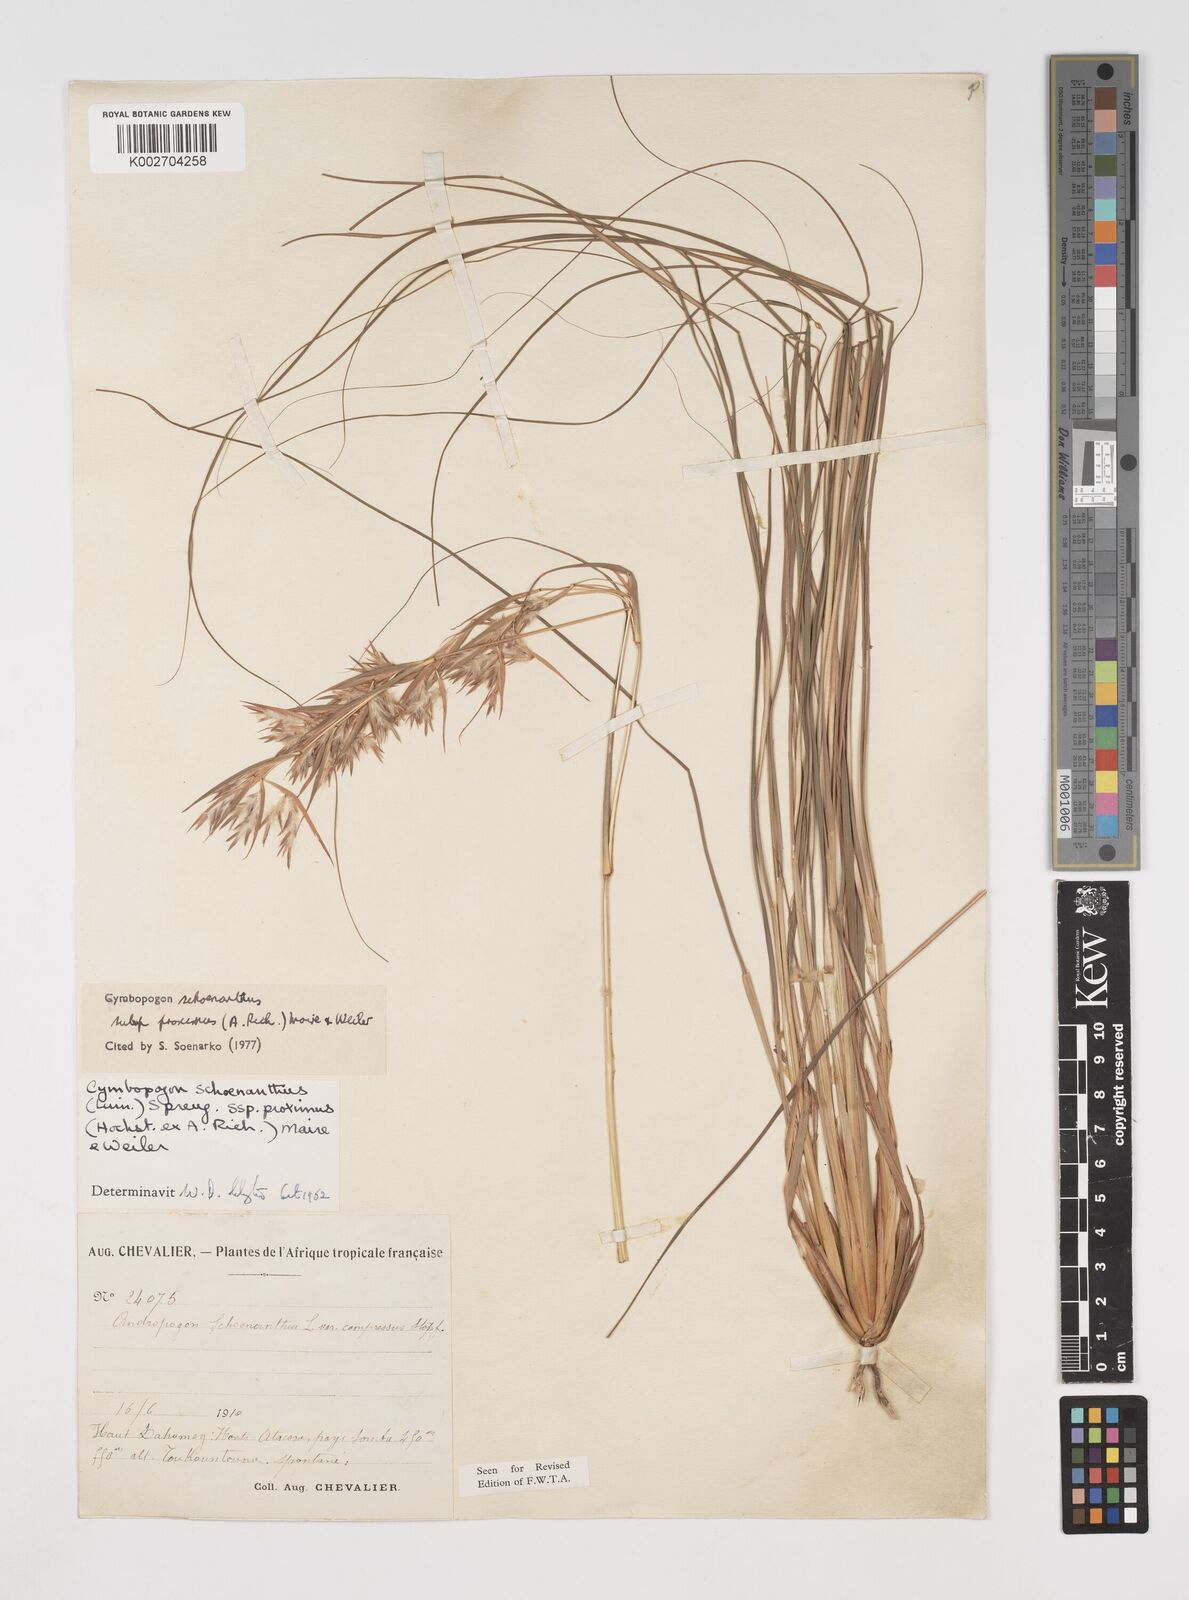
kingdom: Plantae
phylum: Tracheophyta
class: Liliopsida
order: Poales
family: Poaceae
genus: Cymbopogon
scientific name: Cymbopogon schoenanthus
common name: Geranium grass
